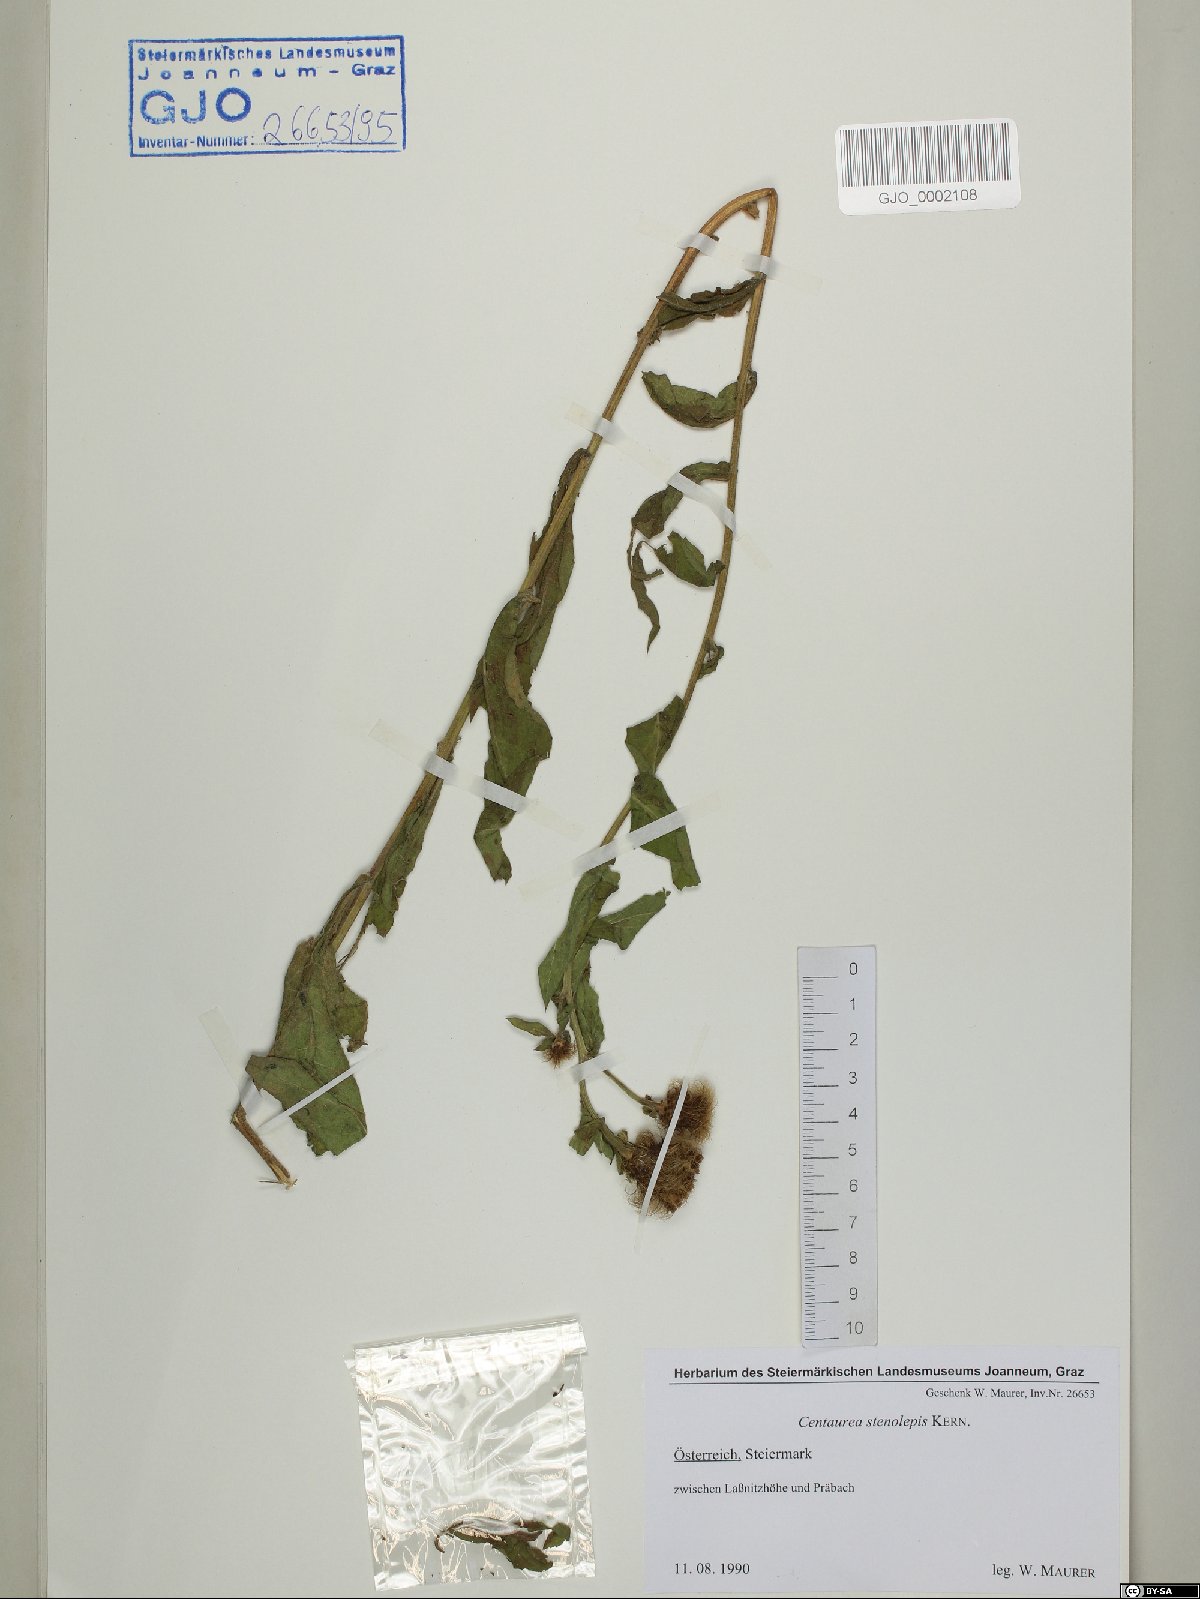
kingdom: Plantae
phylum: Tracheophyta
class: Magnoliopsida
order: Asterales
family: Asteraceae
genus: Centaurea
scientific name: Centaurea stenolepis
